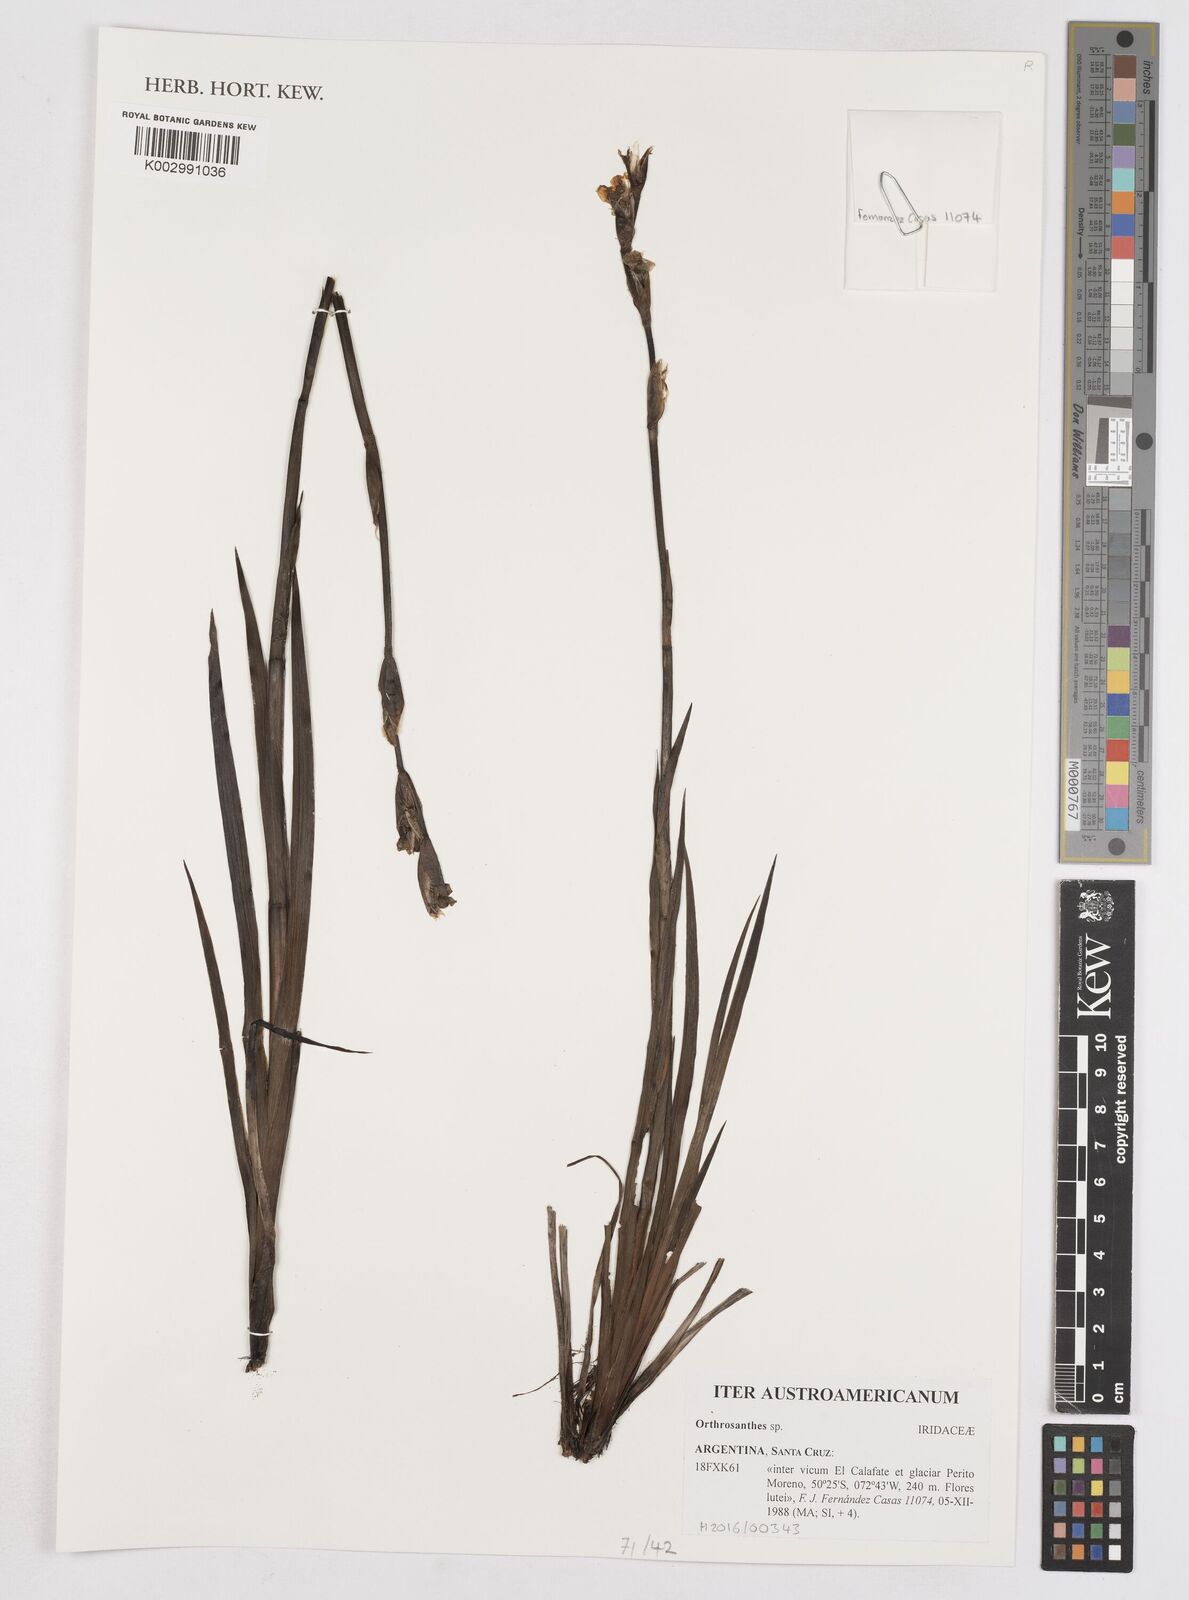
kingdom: Plantae
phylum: Tracheophyta
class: Liliopsida
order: Asparagales
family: Iridaceae
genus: Orthrosanthus
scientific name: Orthrosanthus
